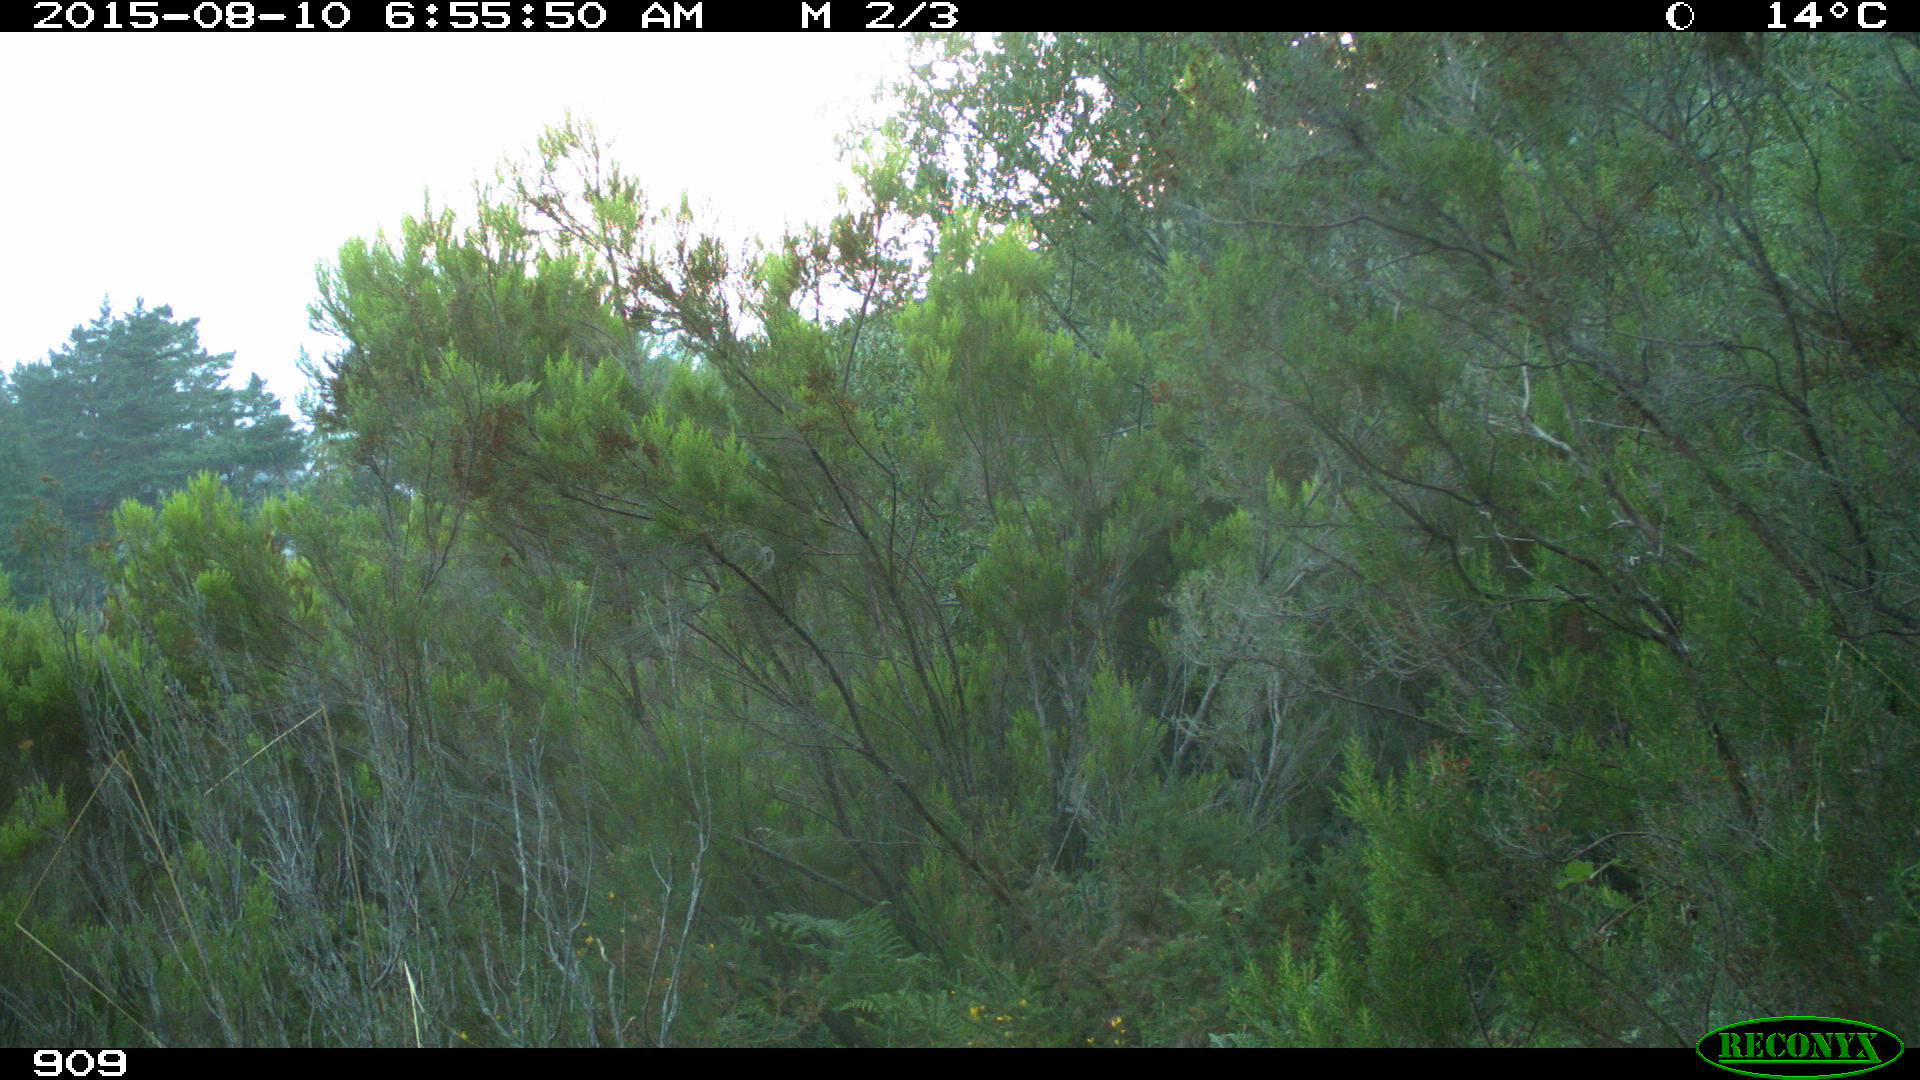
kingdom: Animalia
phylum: Chordata
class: Mammalia
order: Artiodactyla
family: Cervidae
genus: Capreolus
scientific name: Capreolus capreolus
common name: Western roe deer
